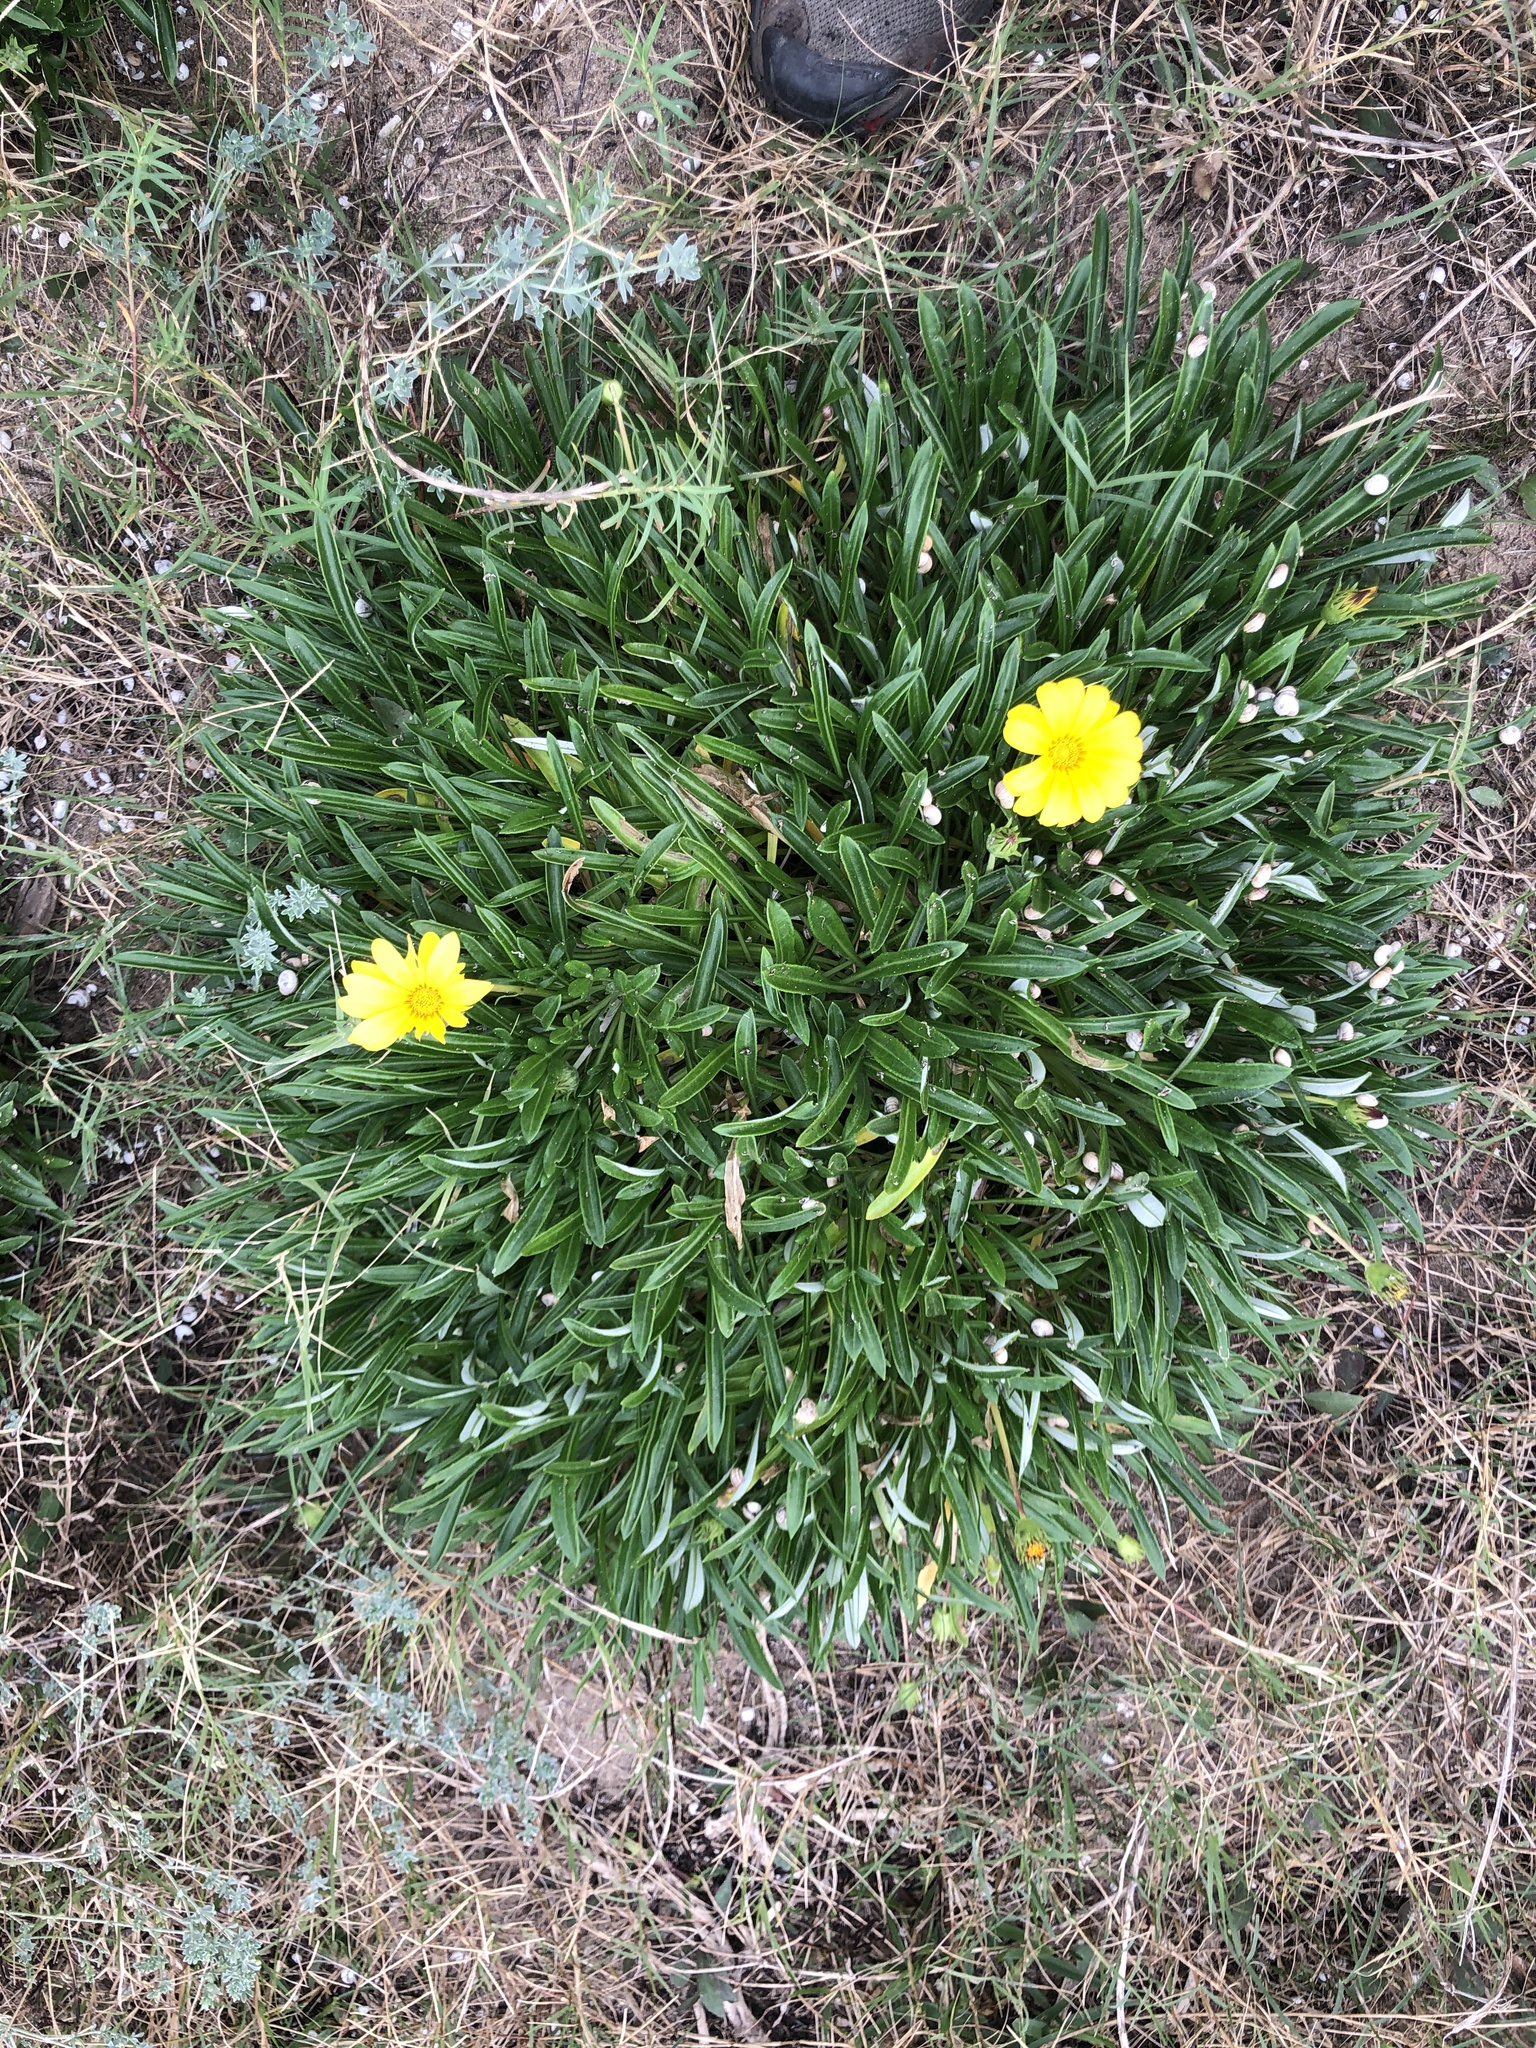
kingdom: Plantae
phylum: Tracheophyta
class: Magnoliopsida
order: Asterales
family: Asteraceae
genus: Gazania
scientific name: Gazania rigens
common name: Treasureflower
